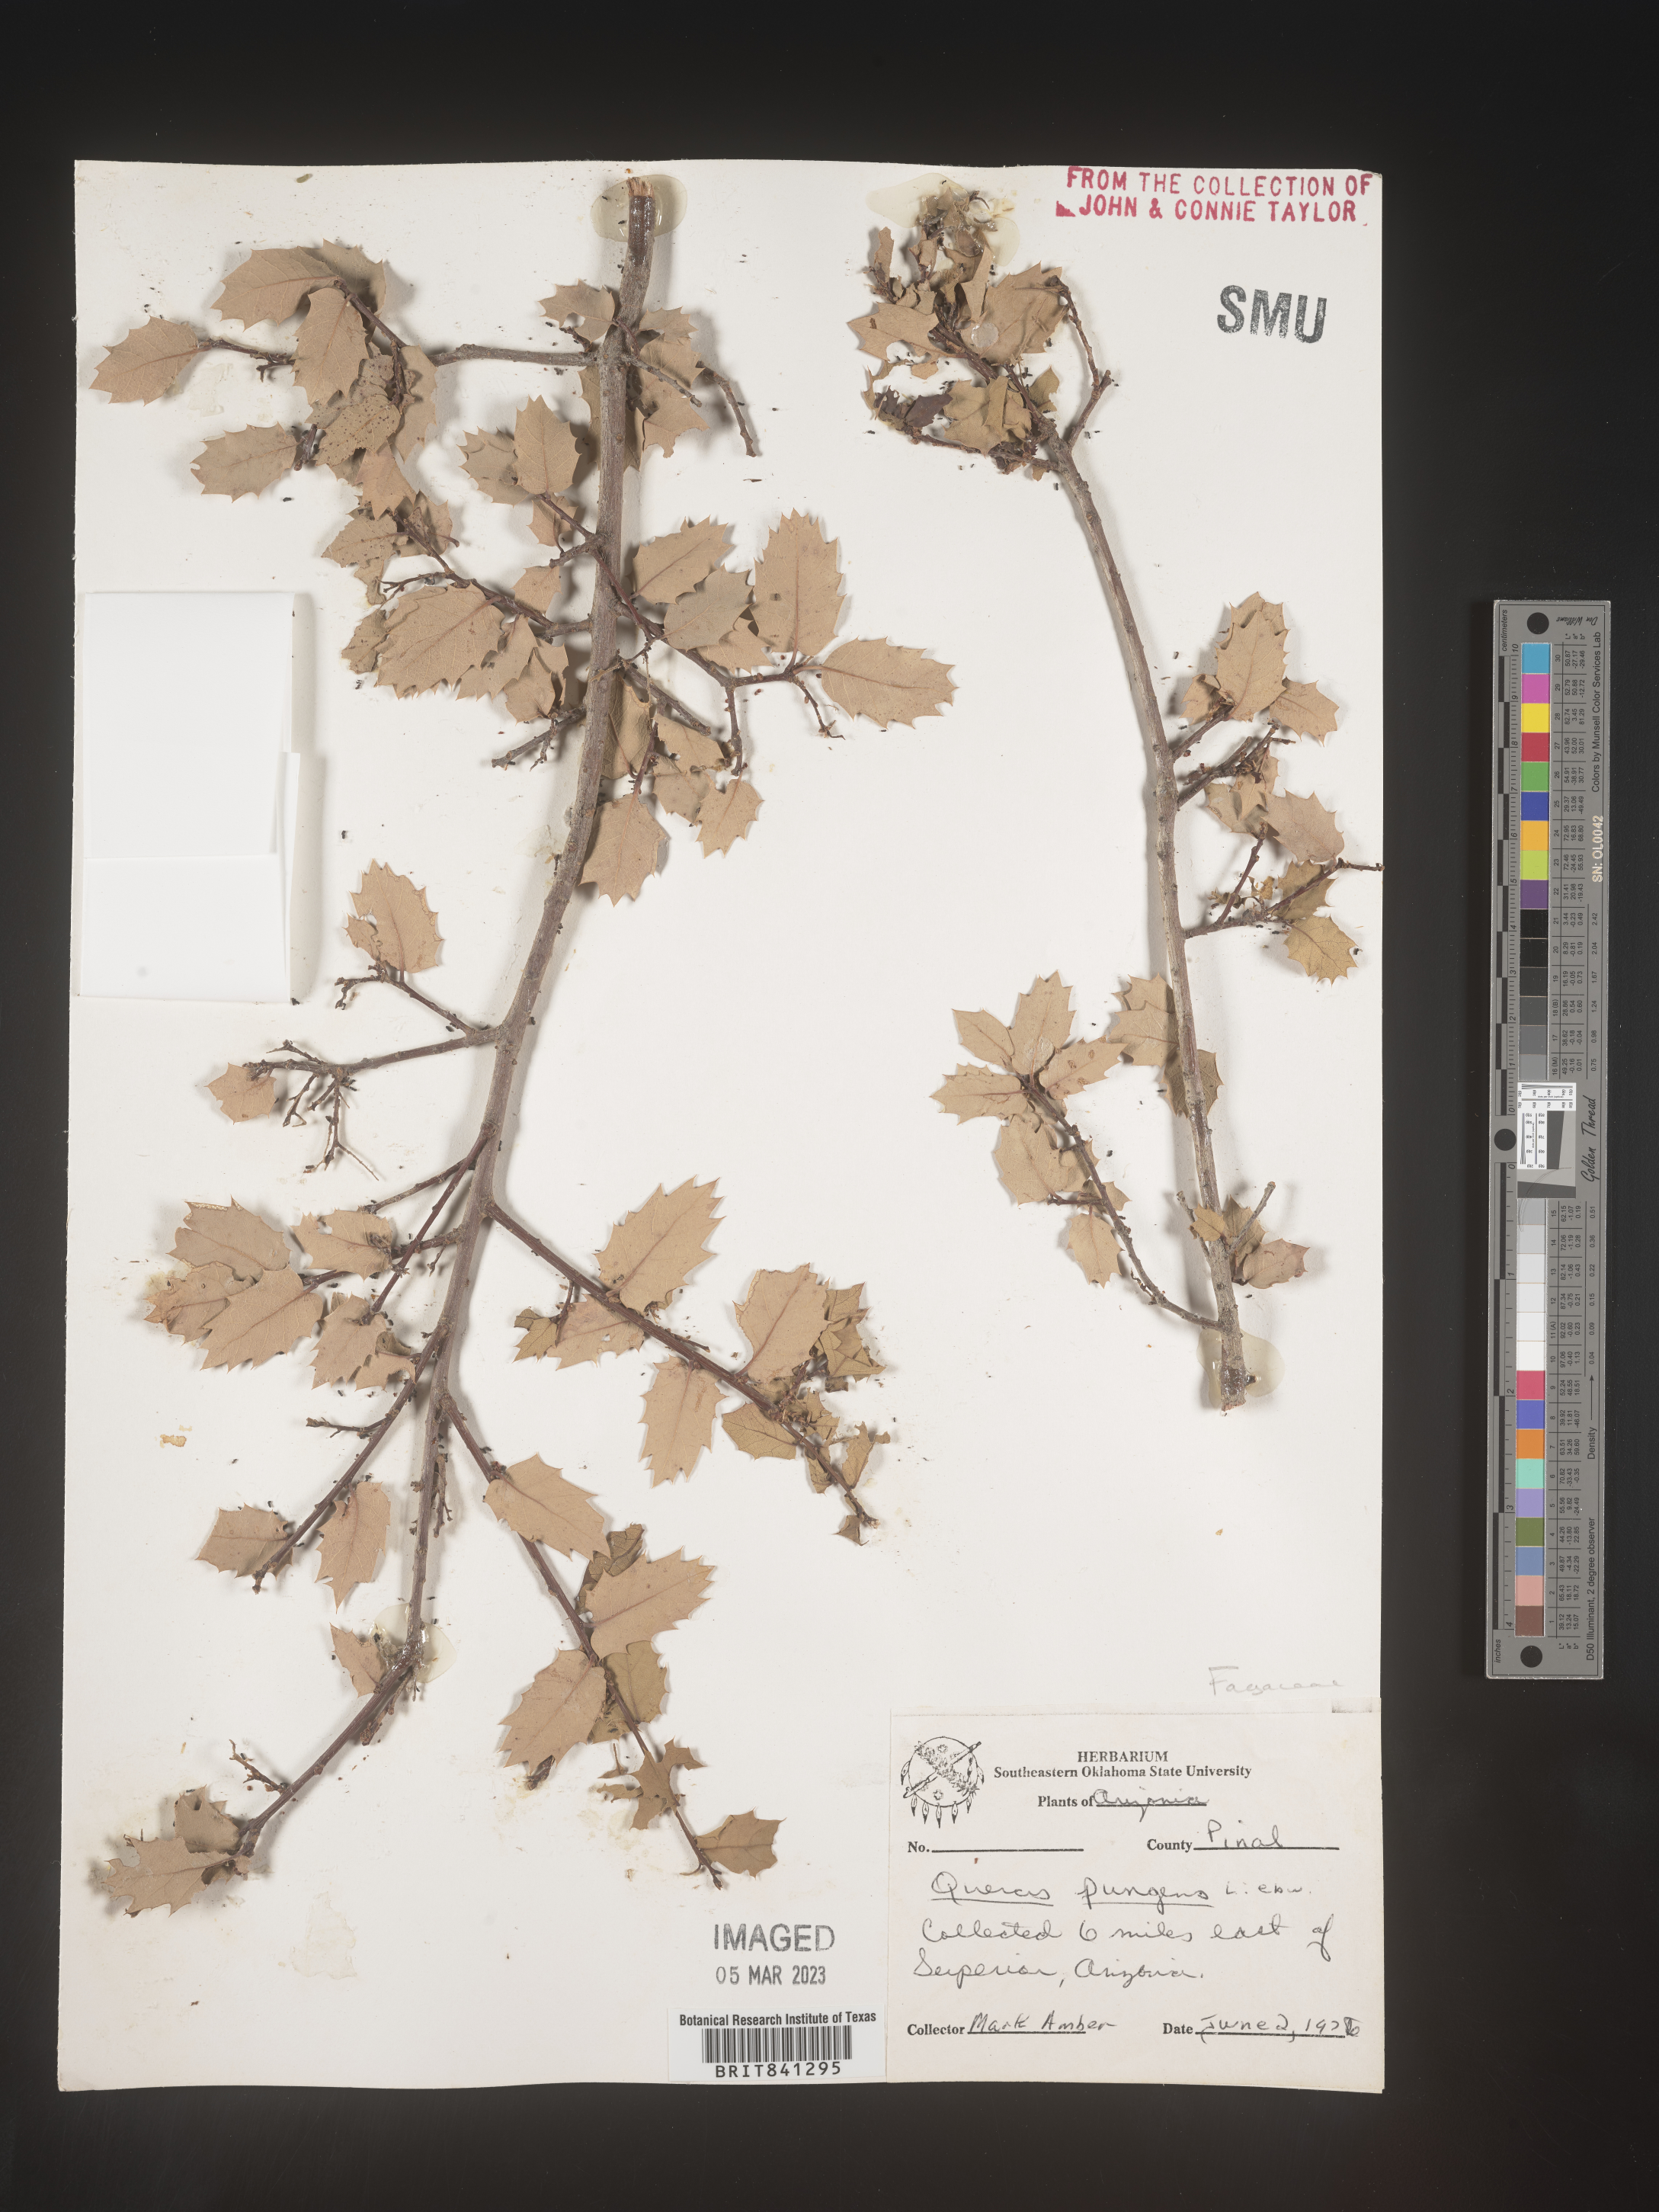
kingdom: Plantae
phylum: Tracheophyta
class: Magnoliopsida
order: Fagales
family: Fagaceae
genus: Quercus
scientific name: Quercus pungens
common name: Pungent oak
